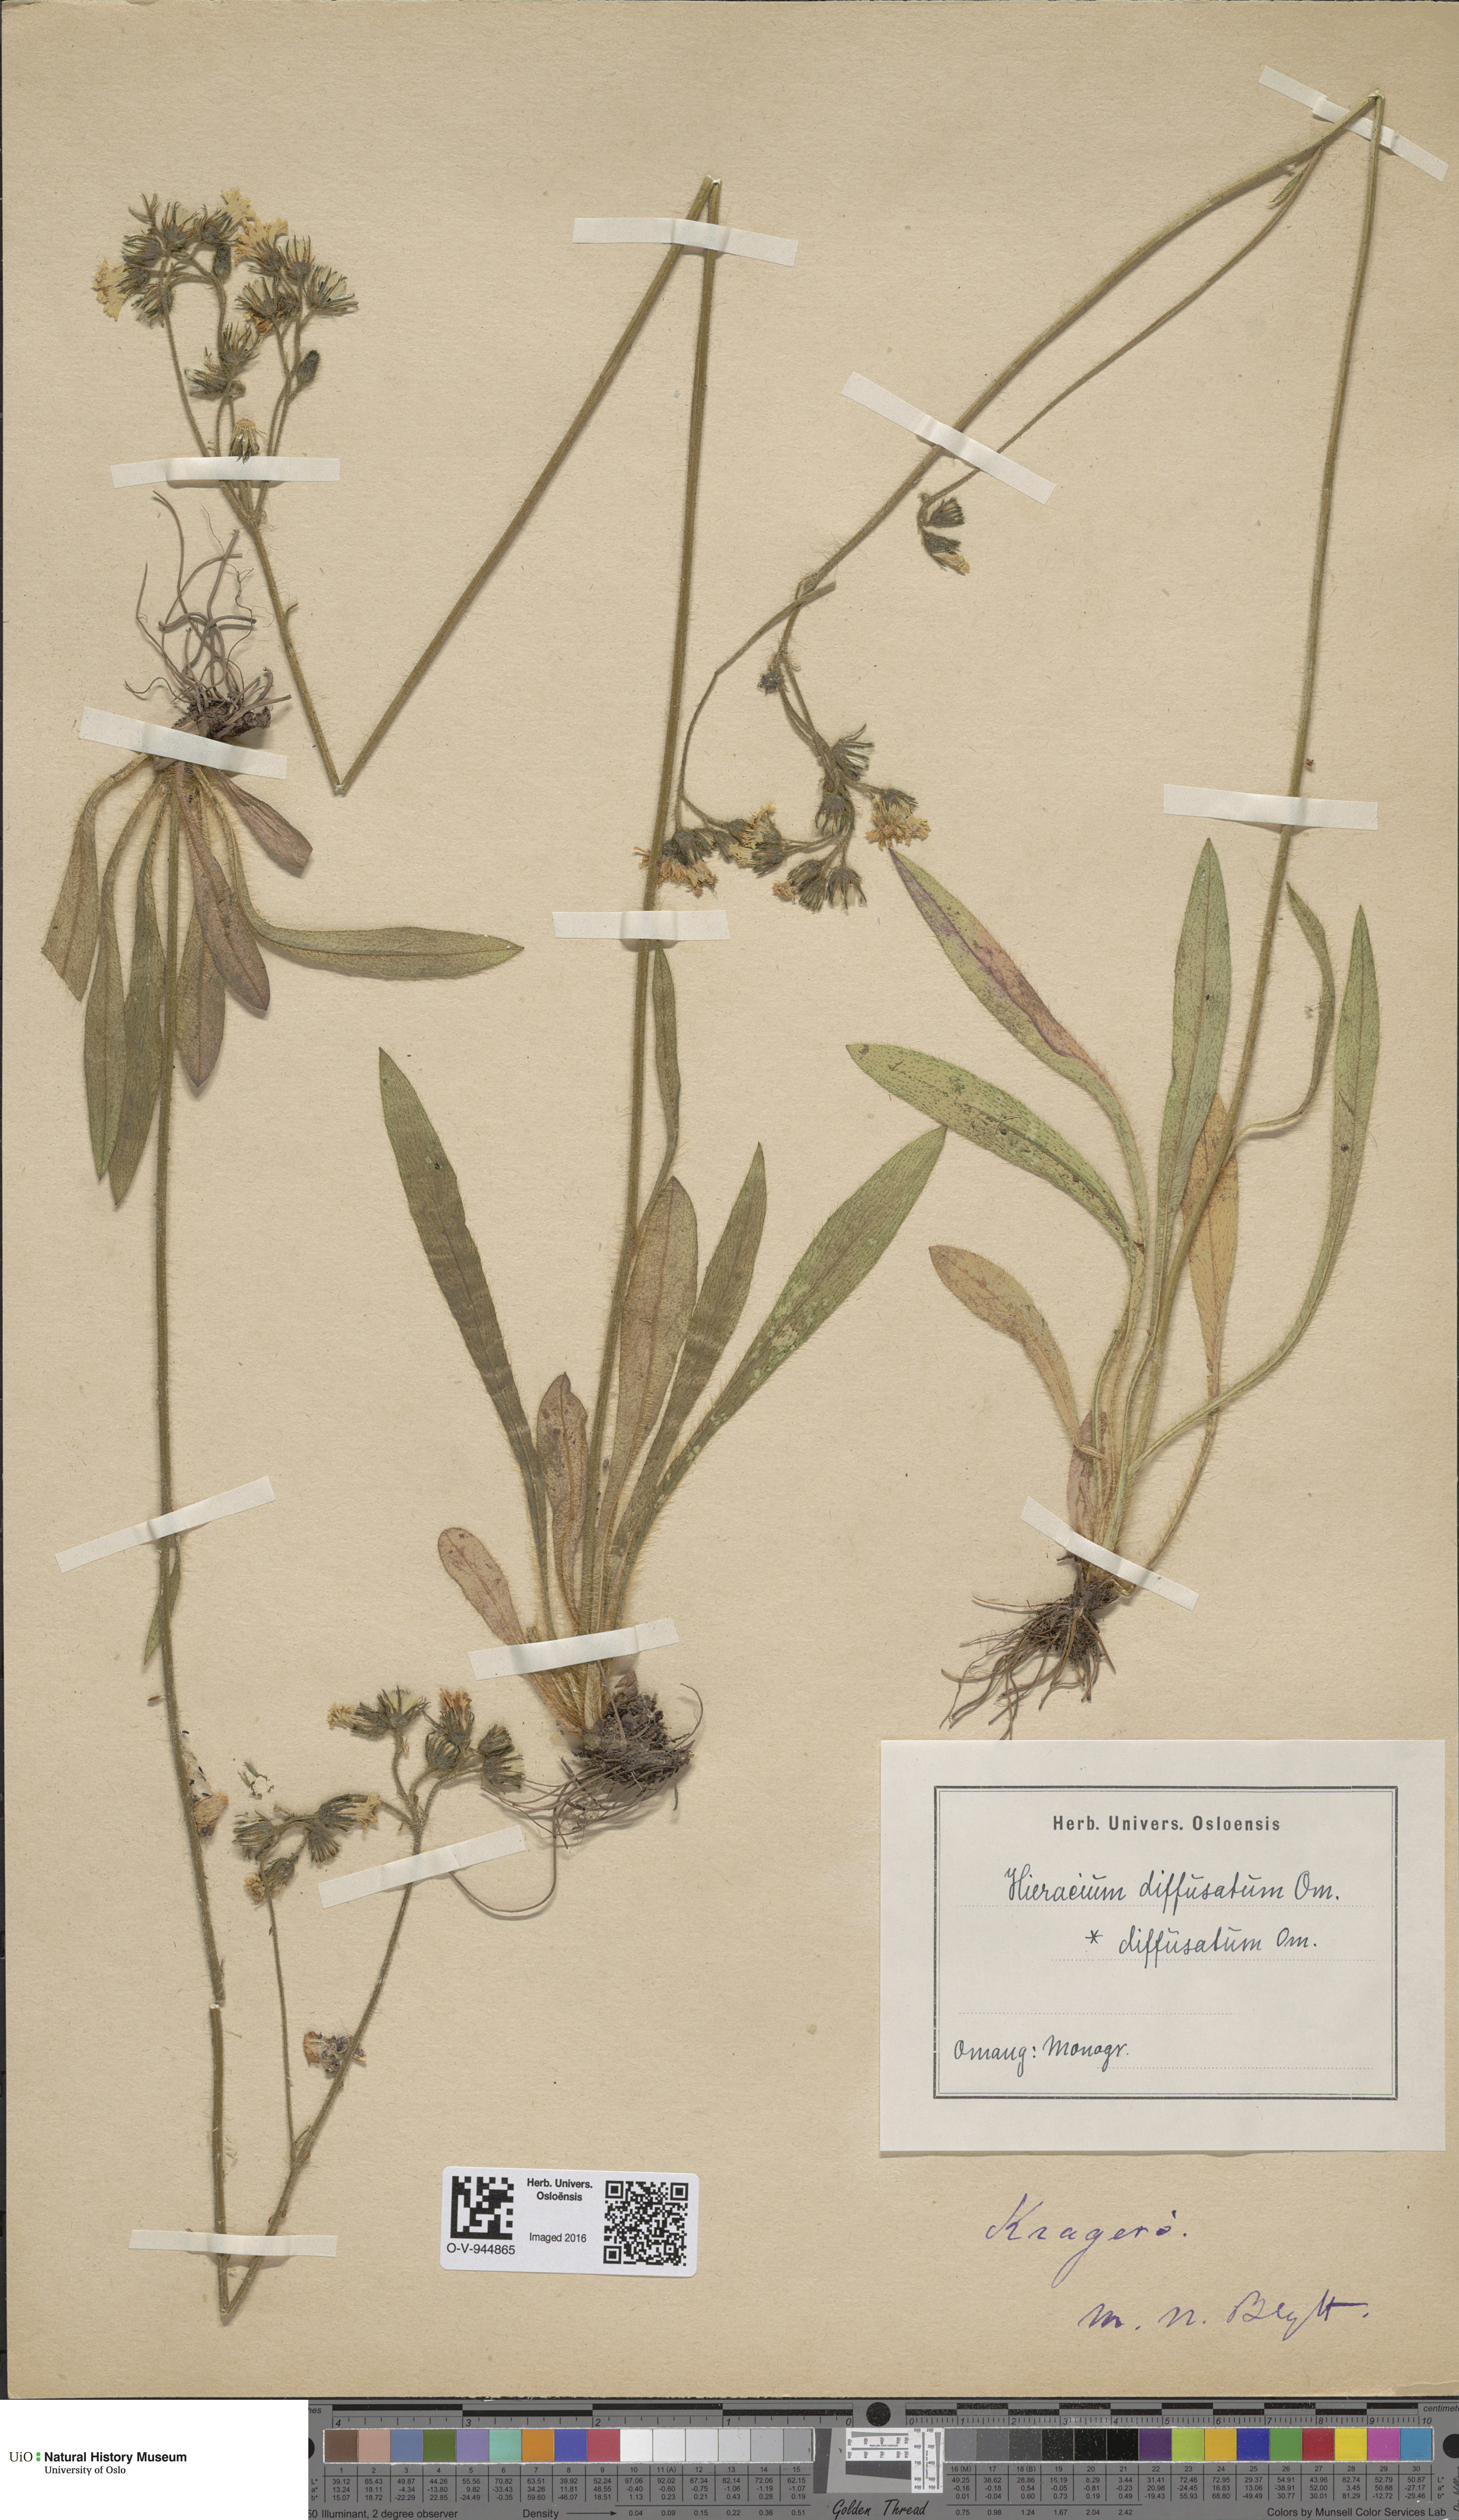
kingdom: Plantae
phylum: Tracheophyta
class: Magnoliopsida
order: Asterales
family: Asteraceae
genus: Pilosella
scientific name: Pilosella dubia
